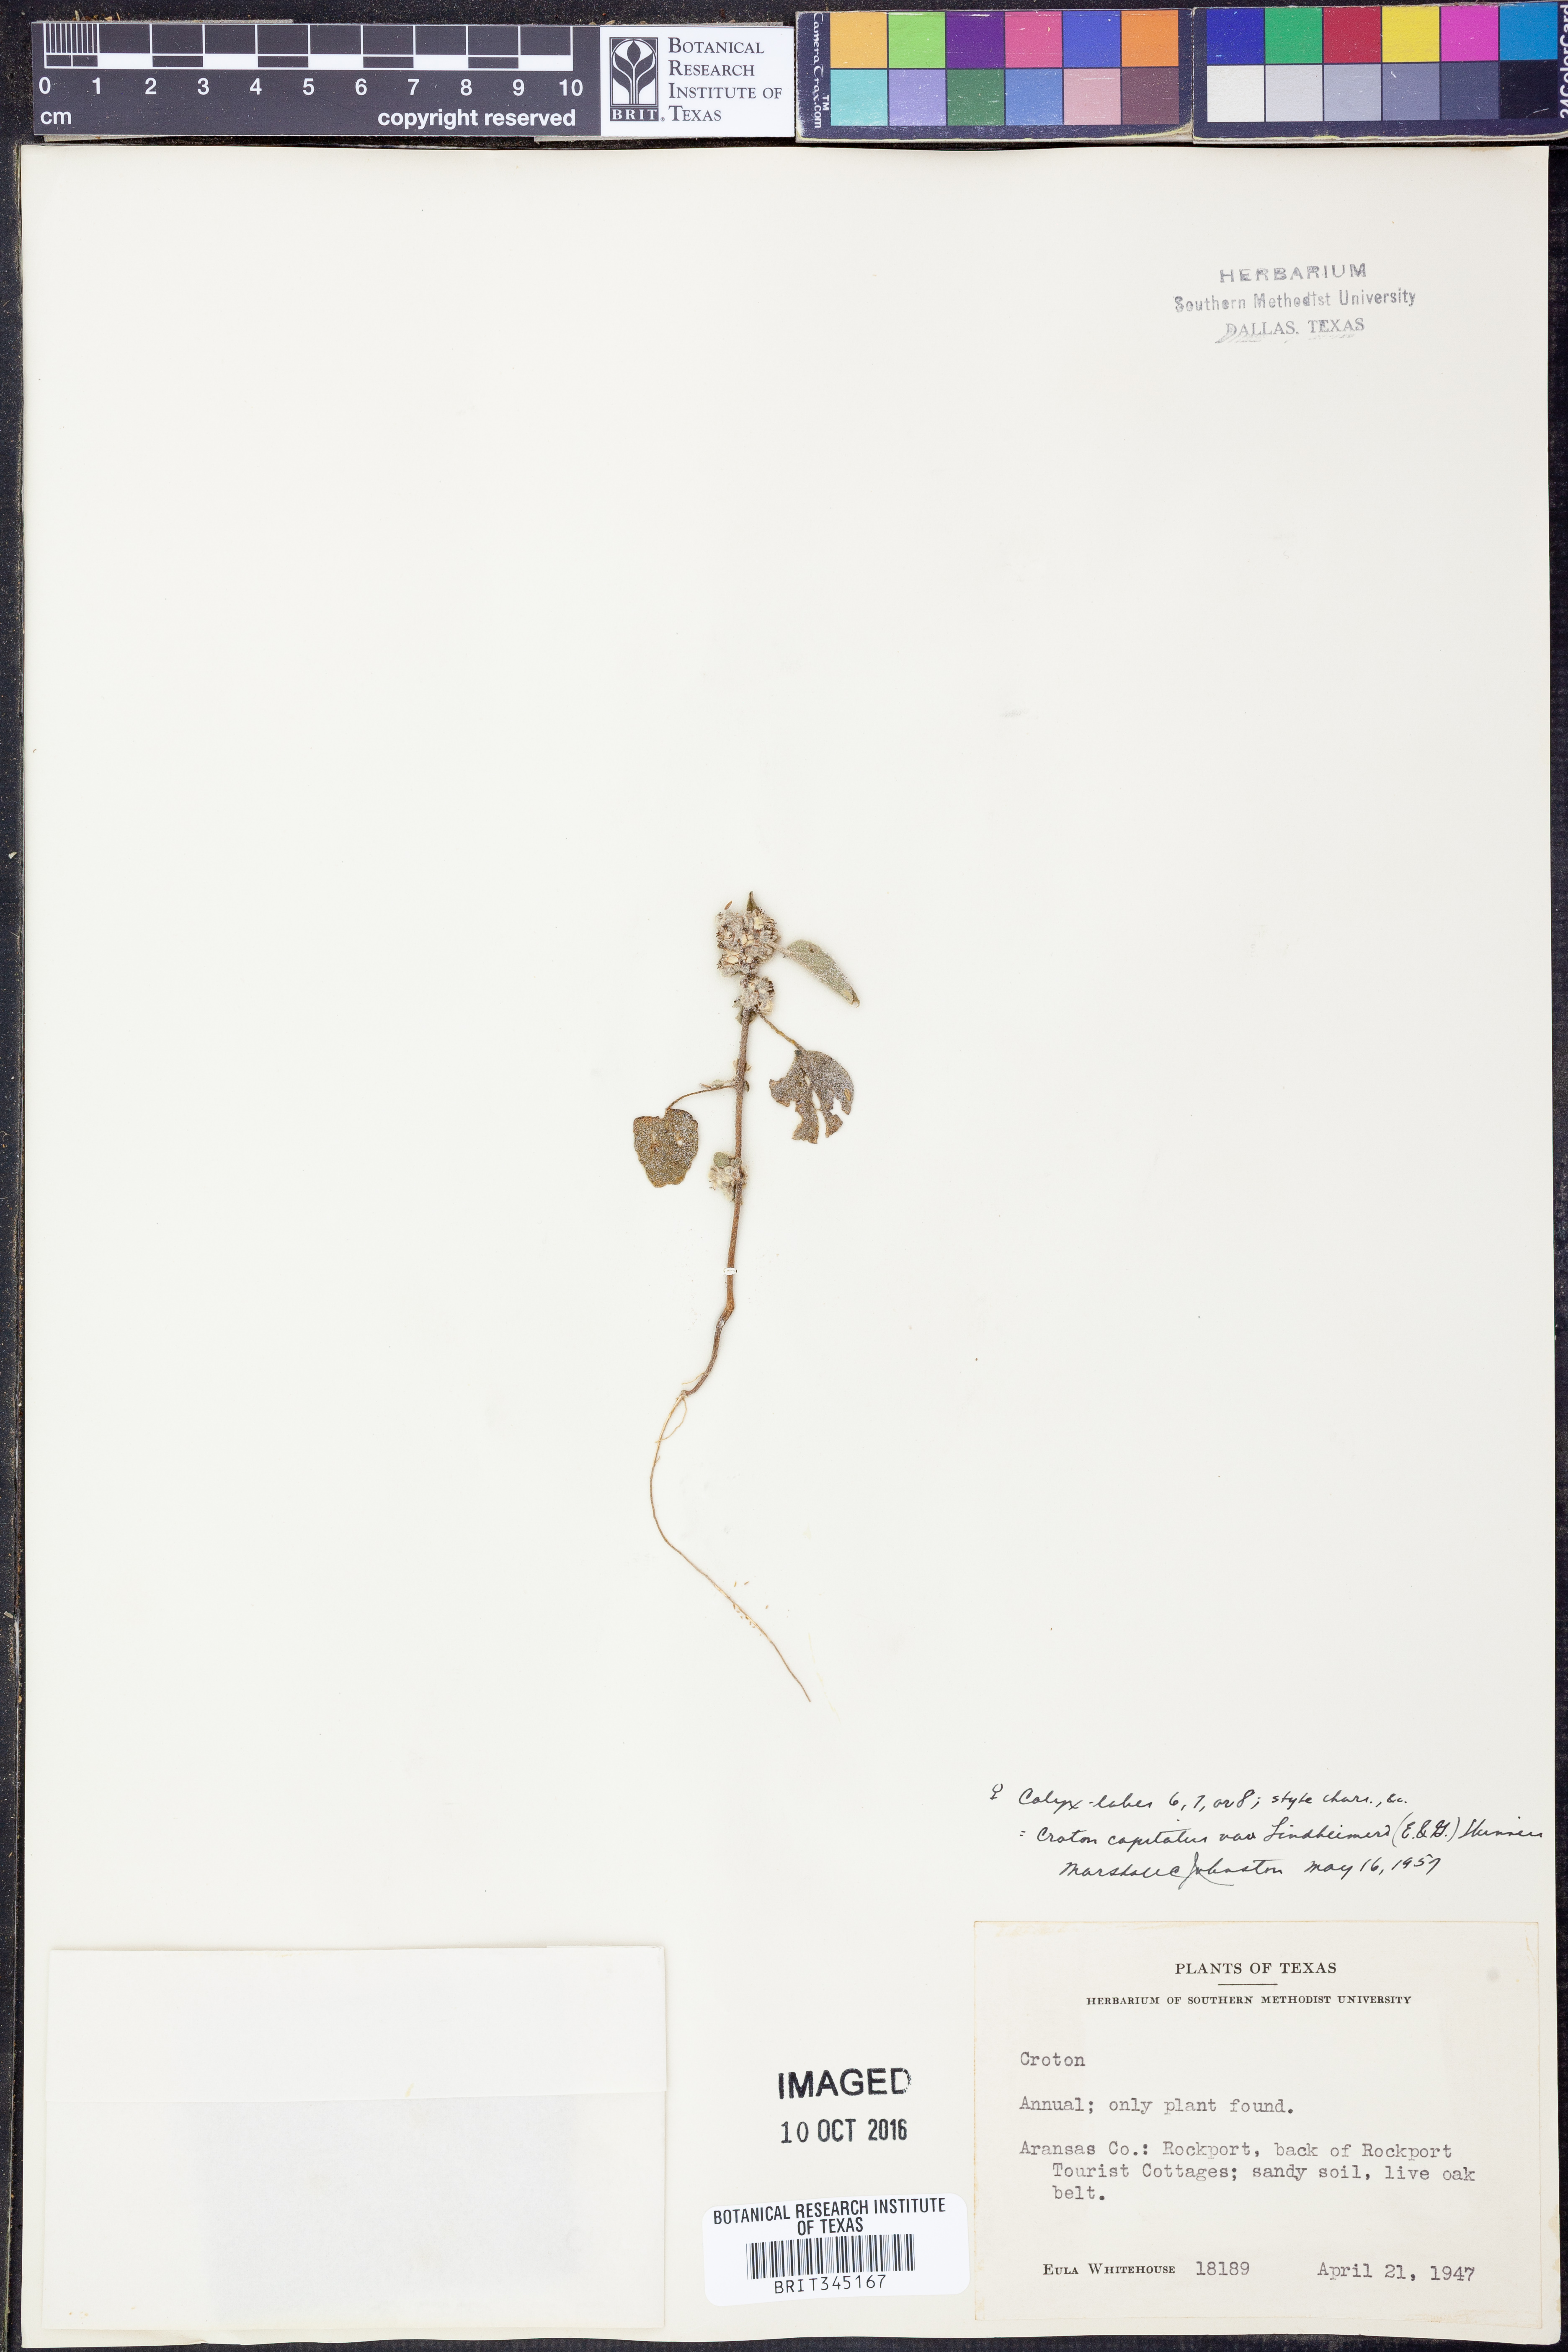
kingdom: Plantae
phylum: Tracheophyta
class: Magnoliopsida
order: Malpighiales
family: Euphorbiaceae
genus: Croton
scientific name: Croton lindheimeri
